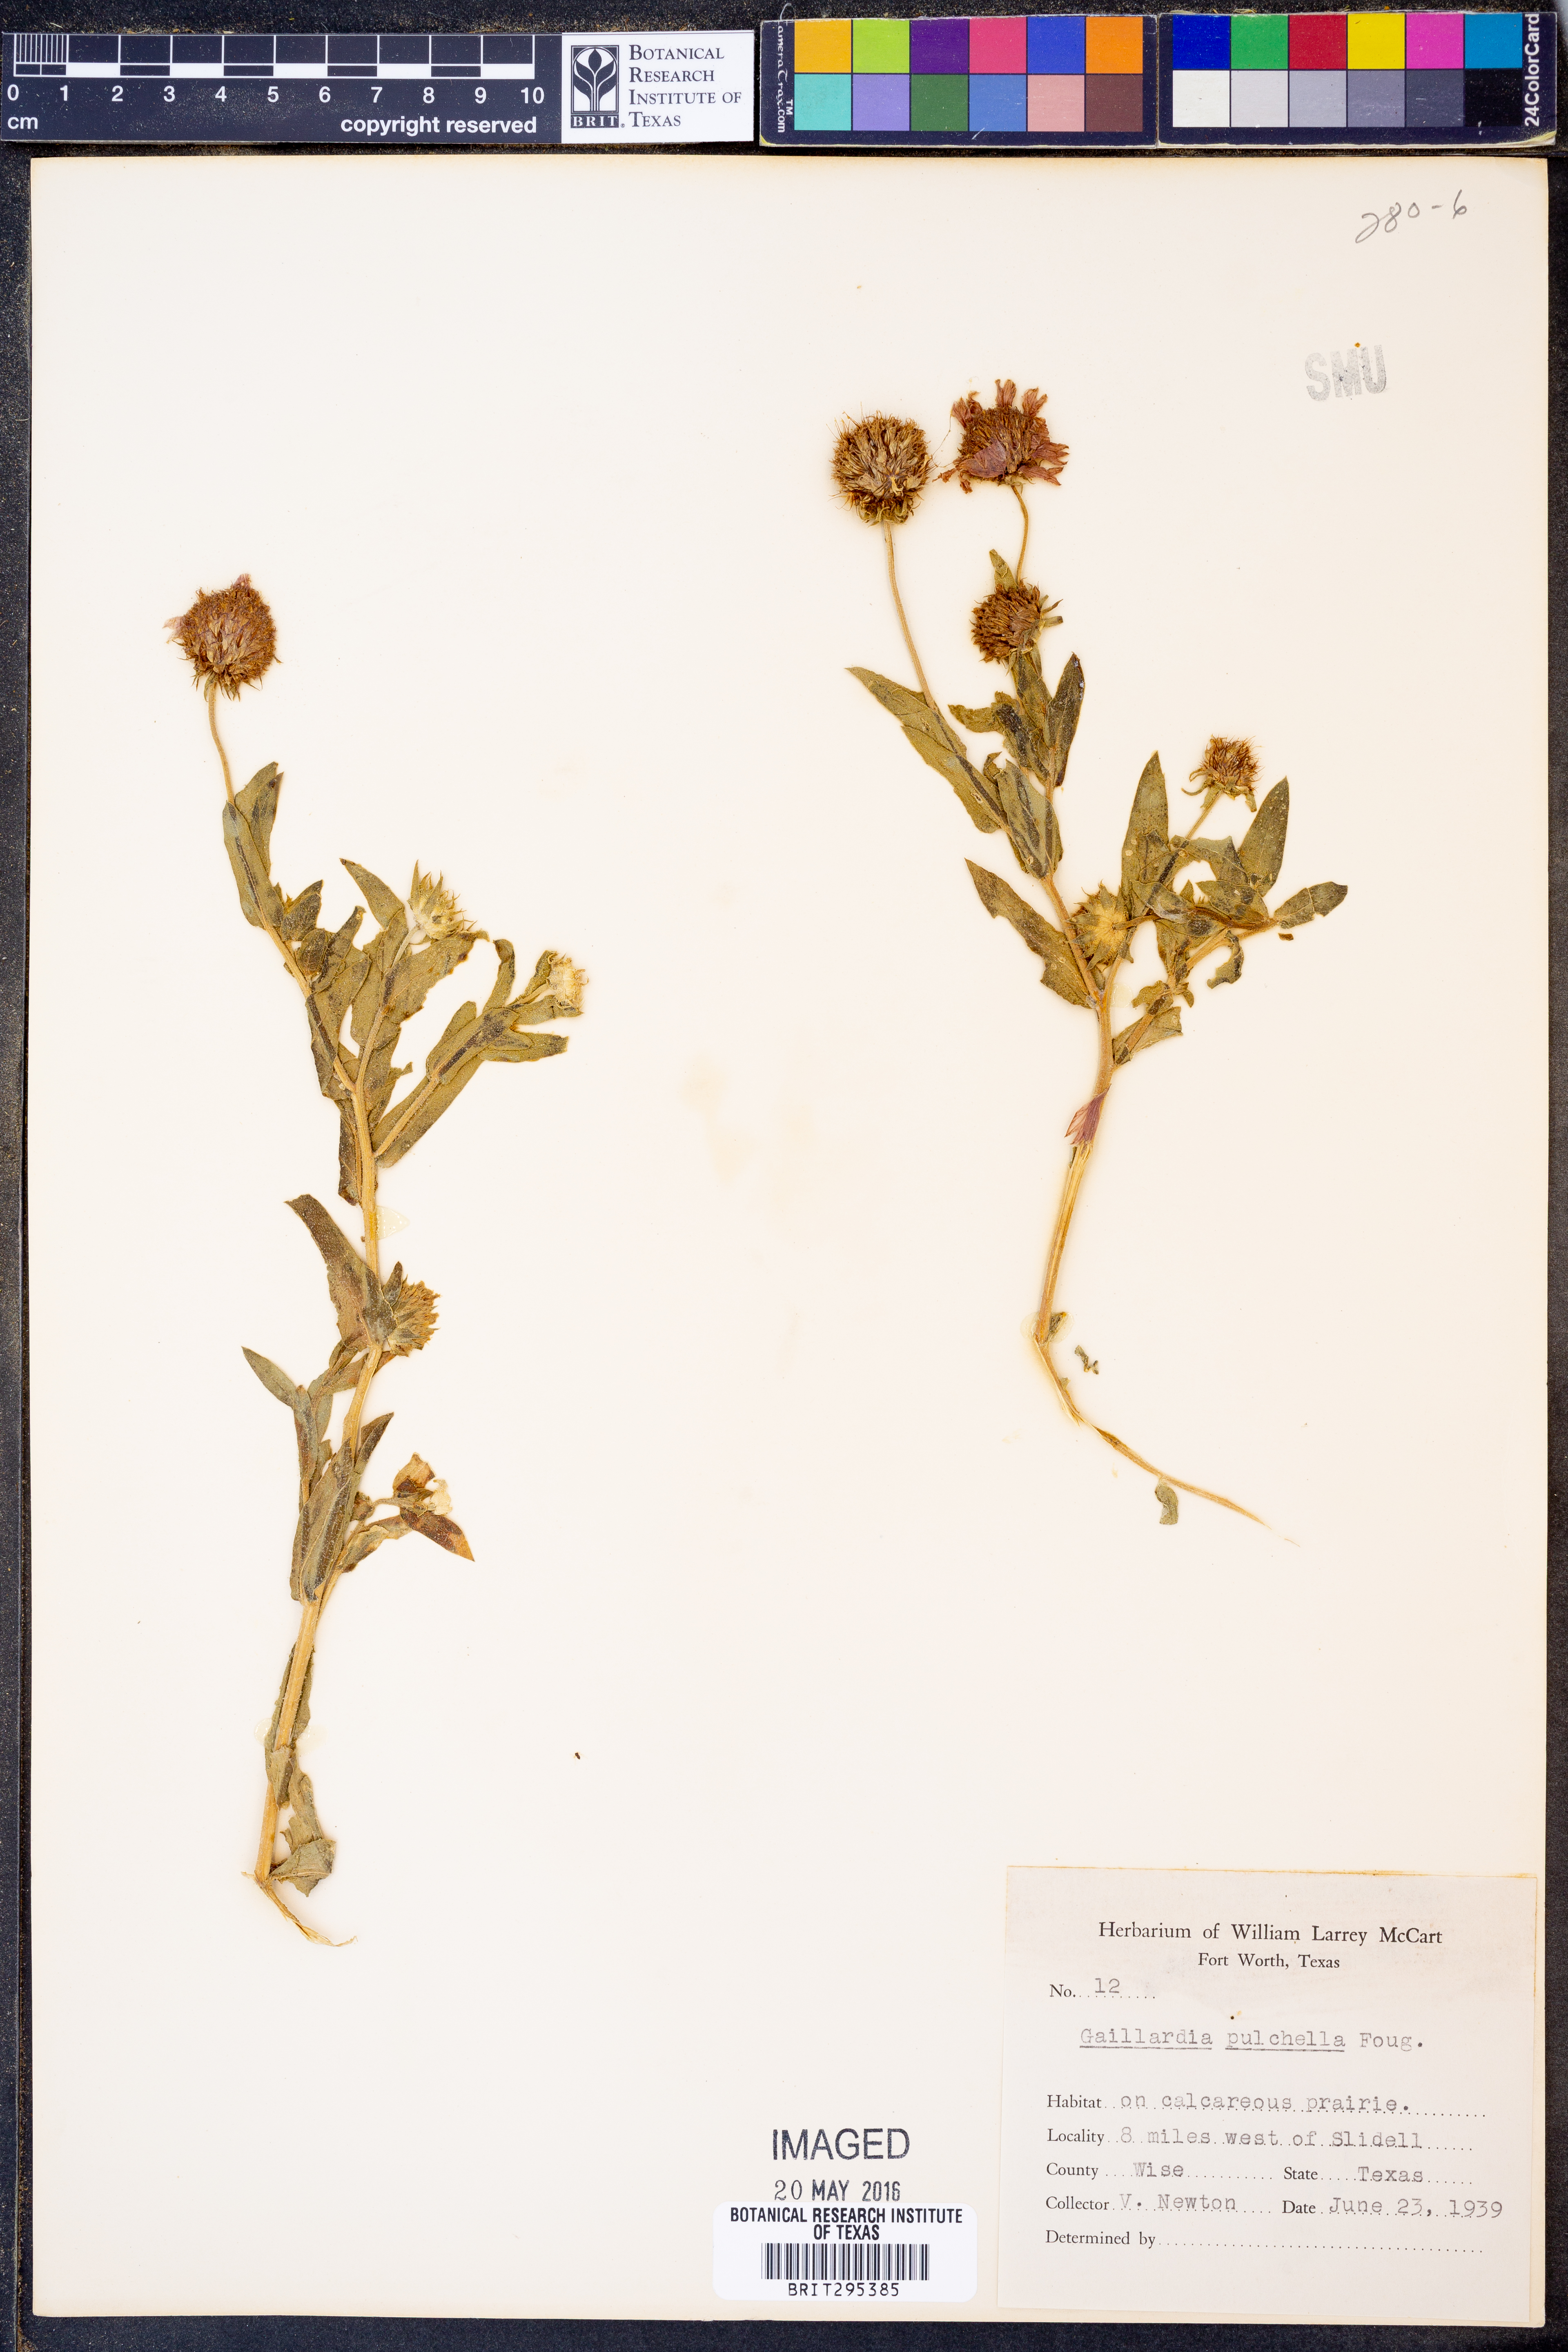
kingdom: Plantae
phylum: Tracheophyta
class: Magnoliopsida
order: Asterales
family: Asteraceae
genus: Gaillardia
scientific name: Gaillardia pulchella
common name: Firewheel
